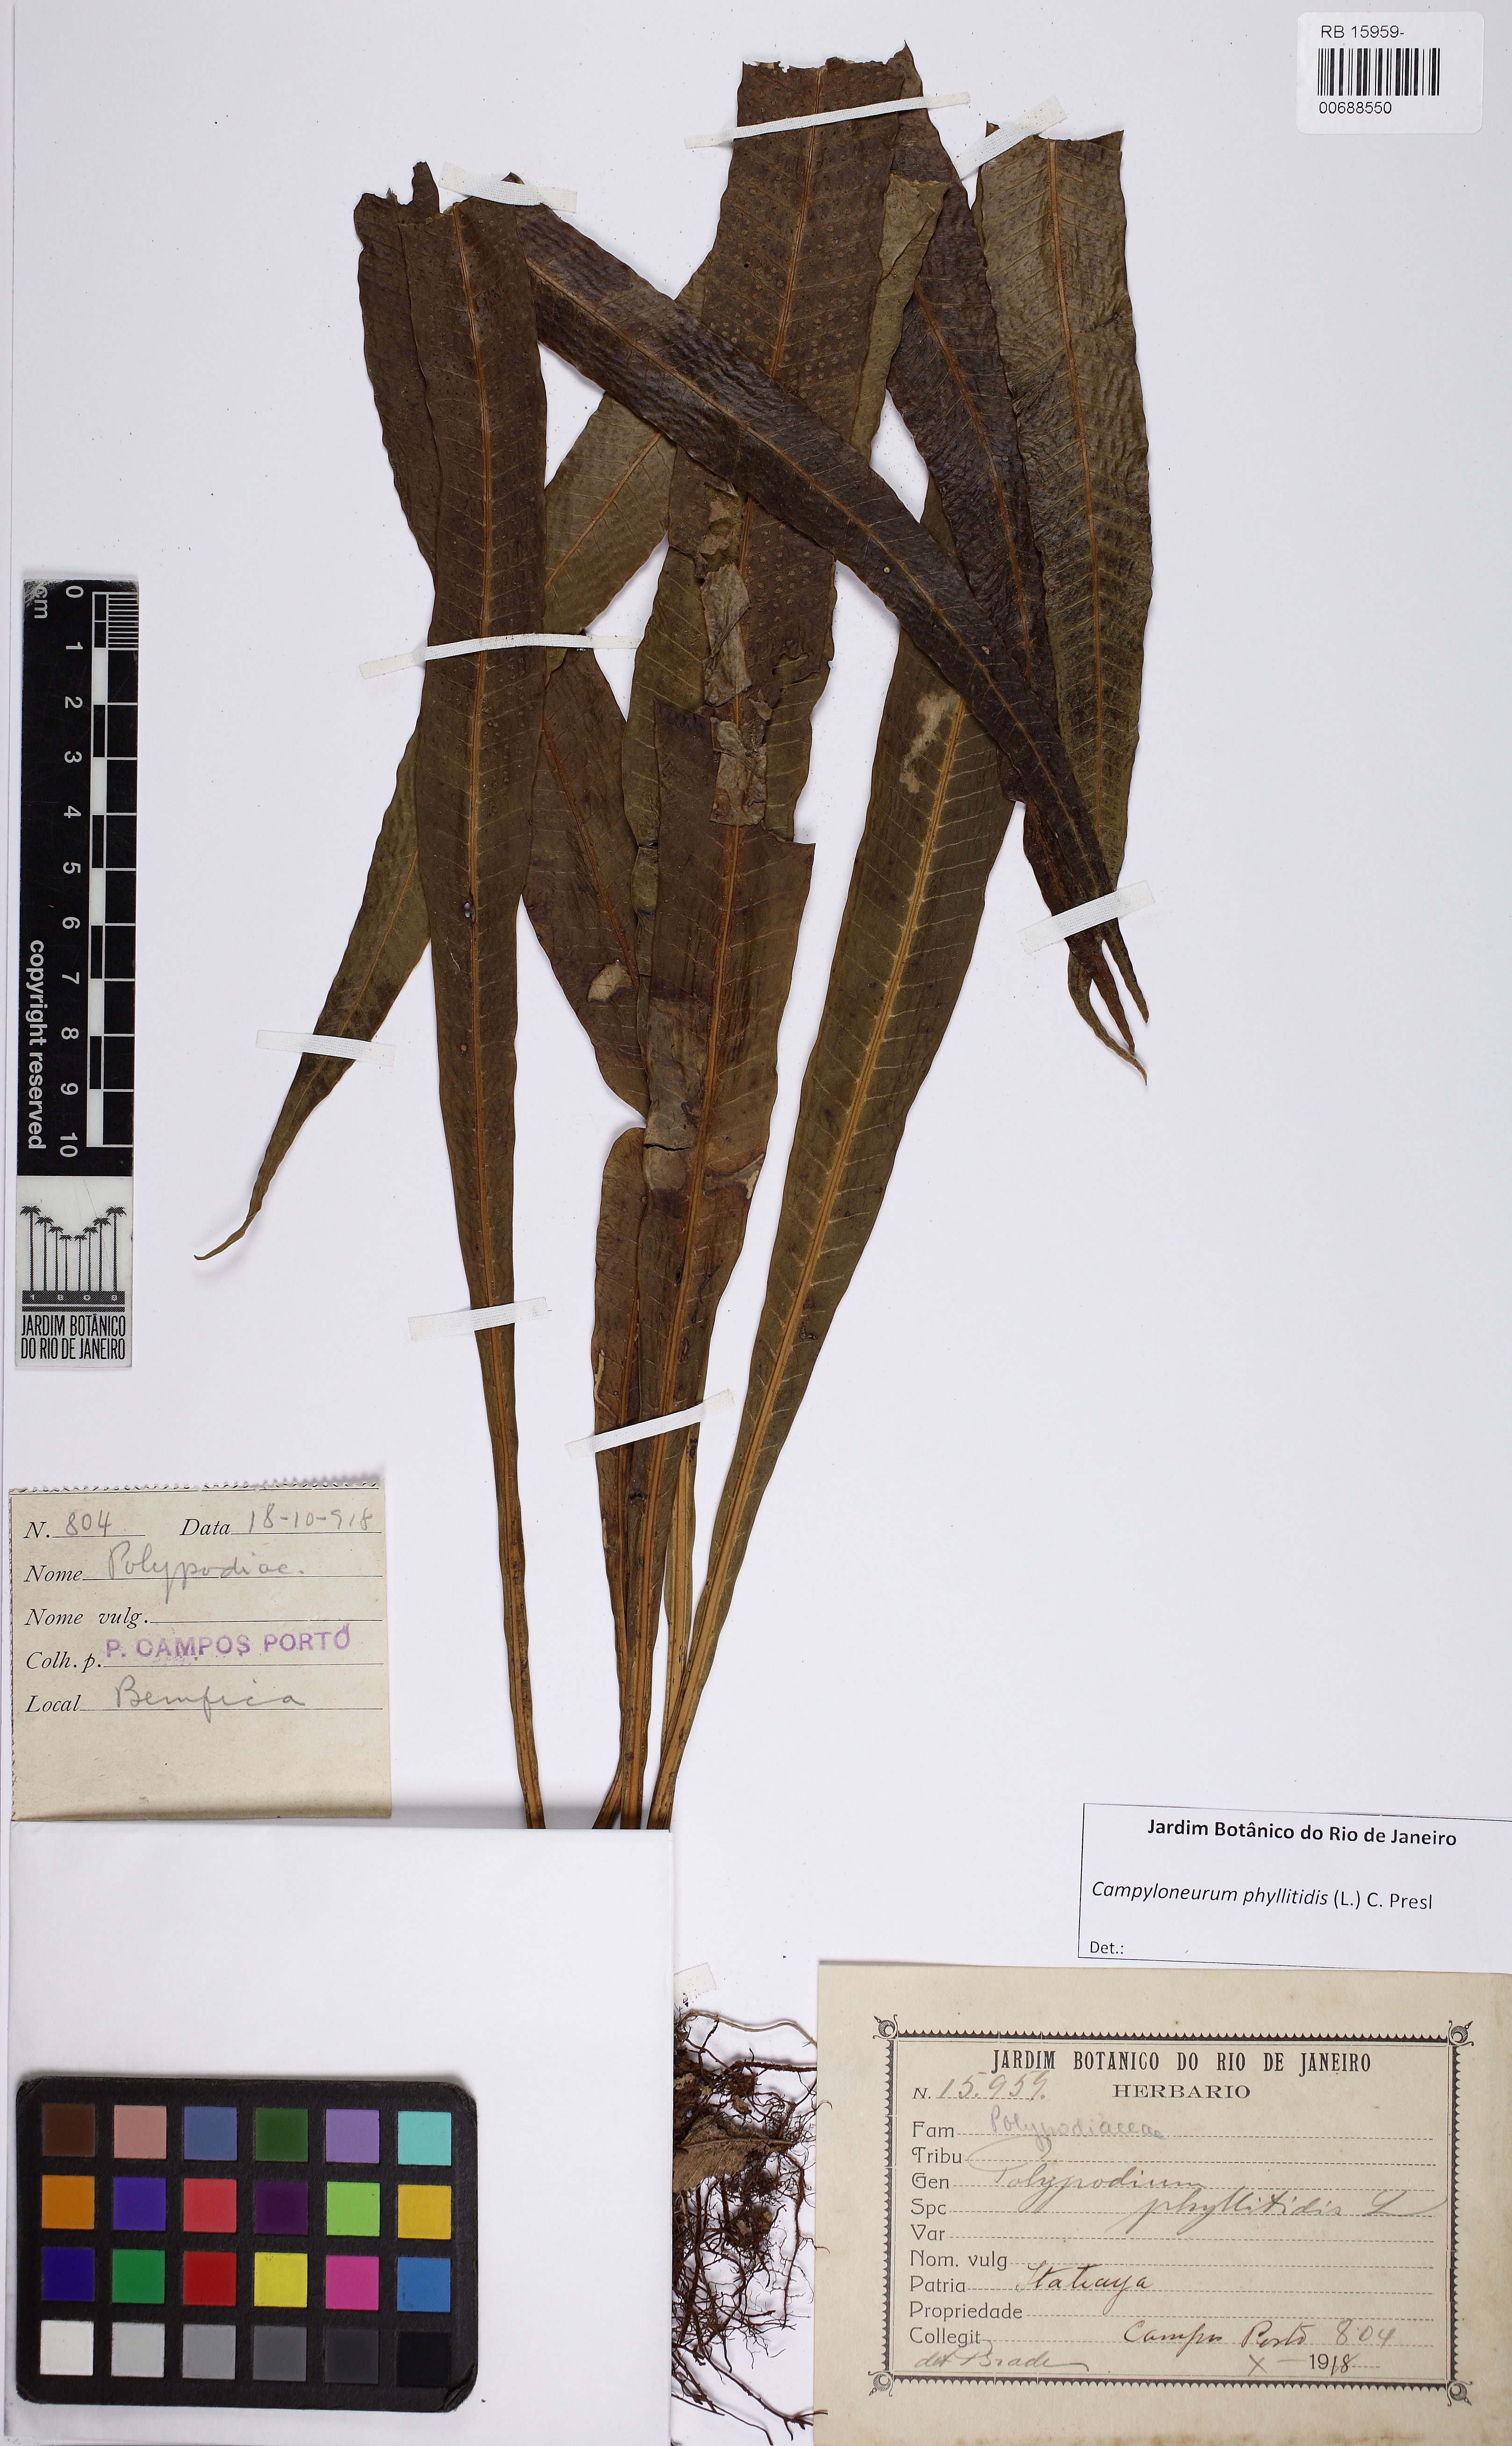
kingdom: Plantae
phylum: Tracheophyta
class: Polypodiopsida
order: Polypodiales
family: Polypodiaceae
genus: Campyloneurum
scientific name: Campyloneurum phyllitidis
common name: Cow-tongue fern
